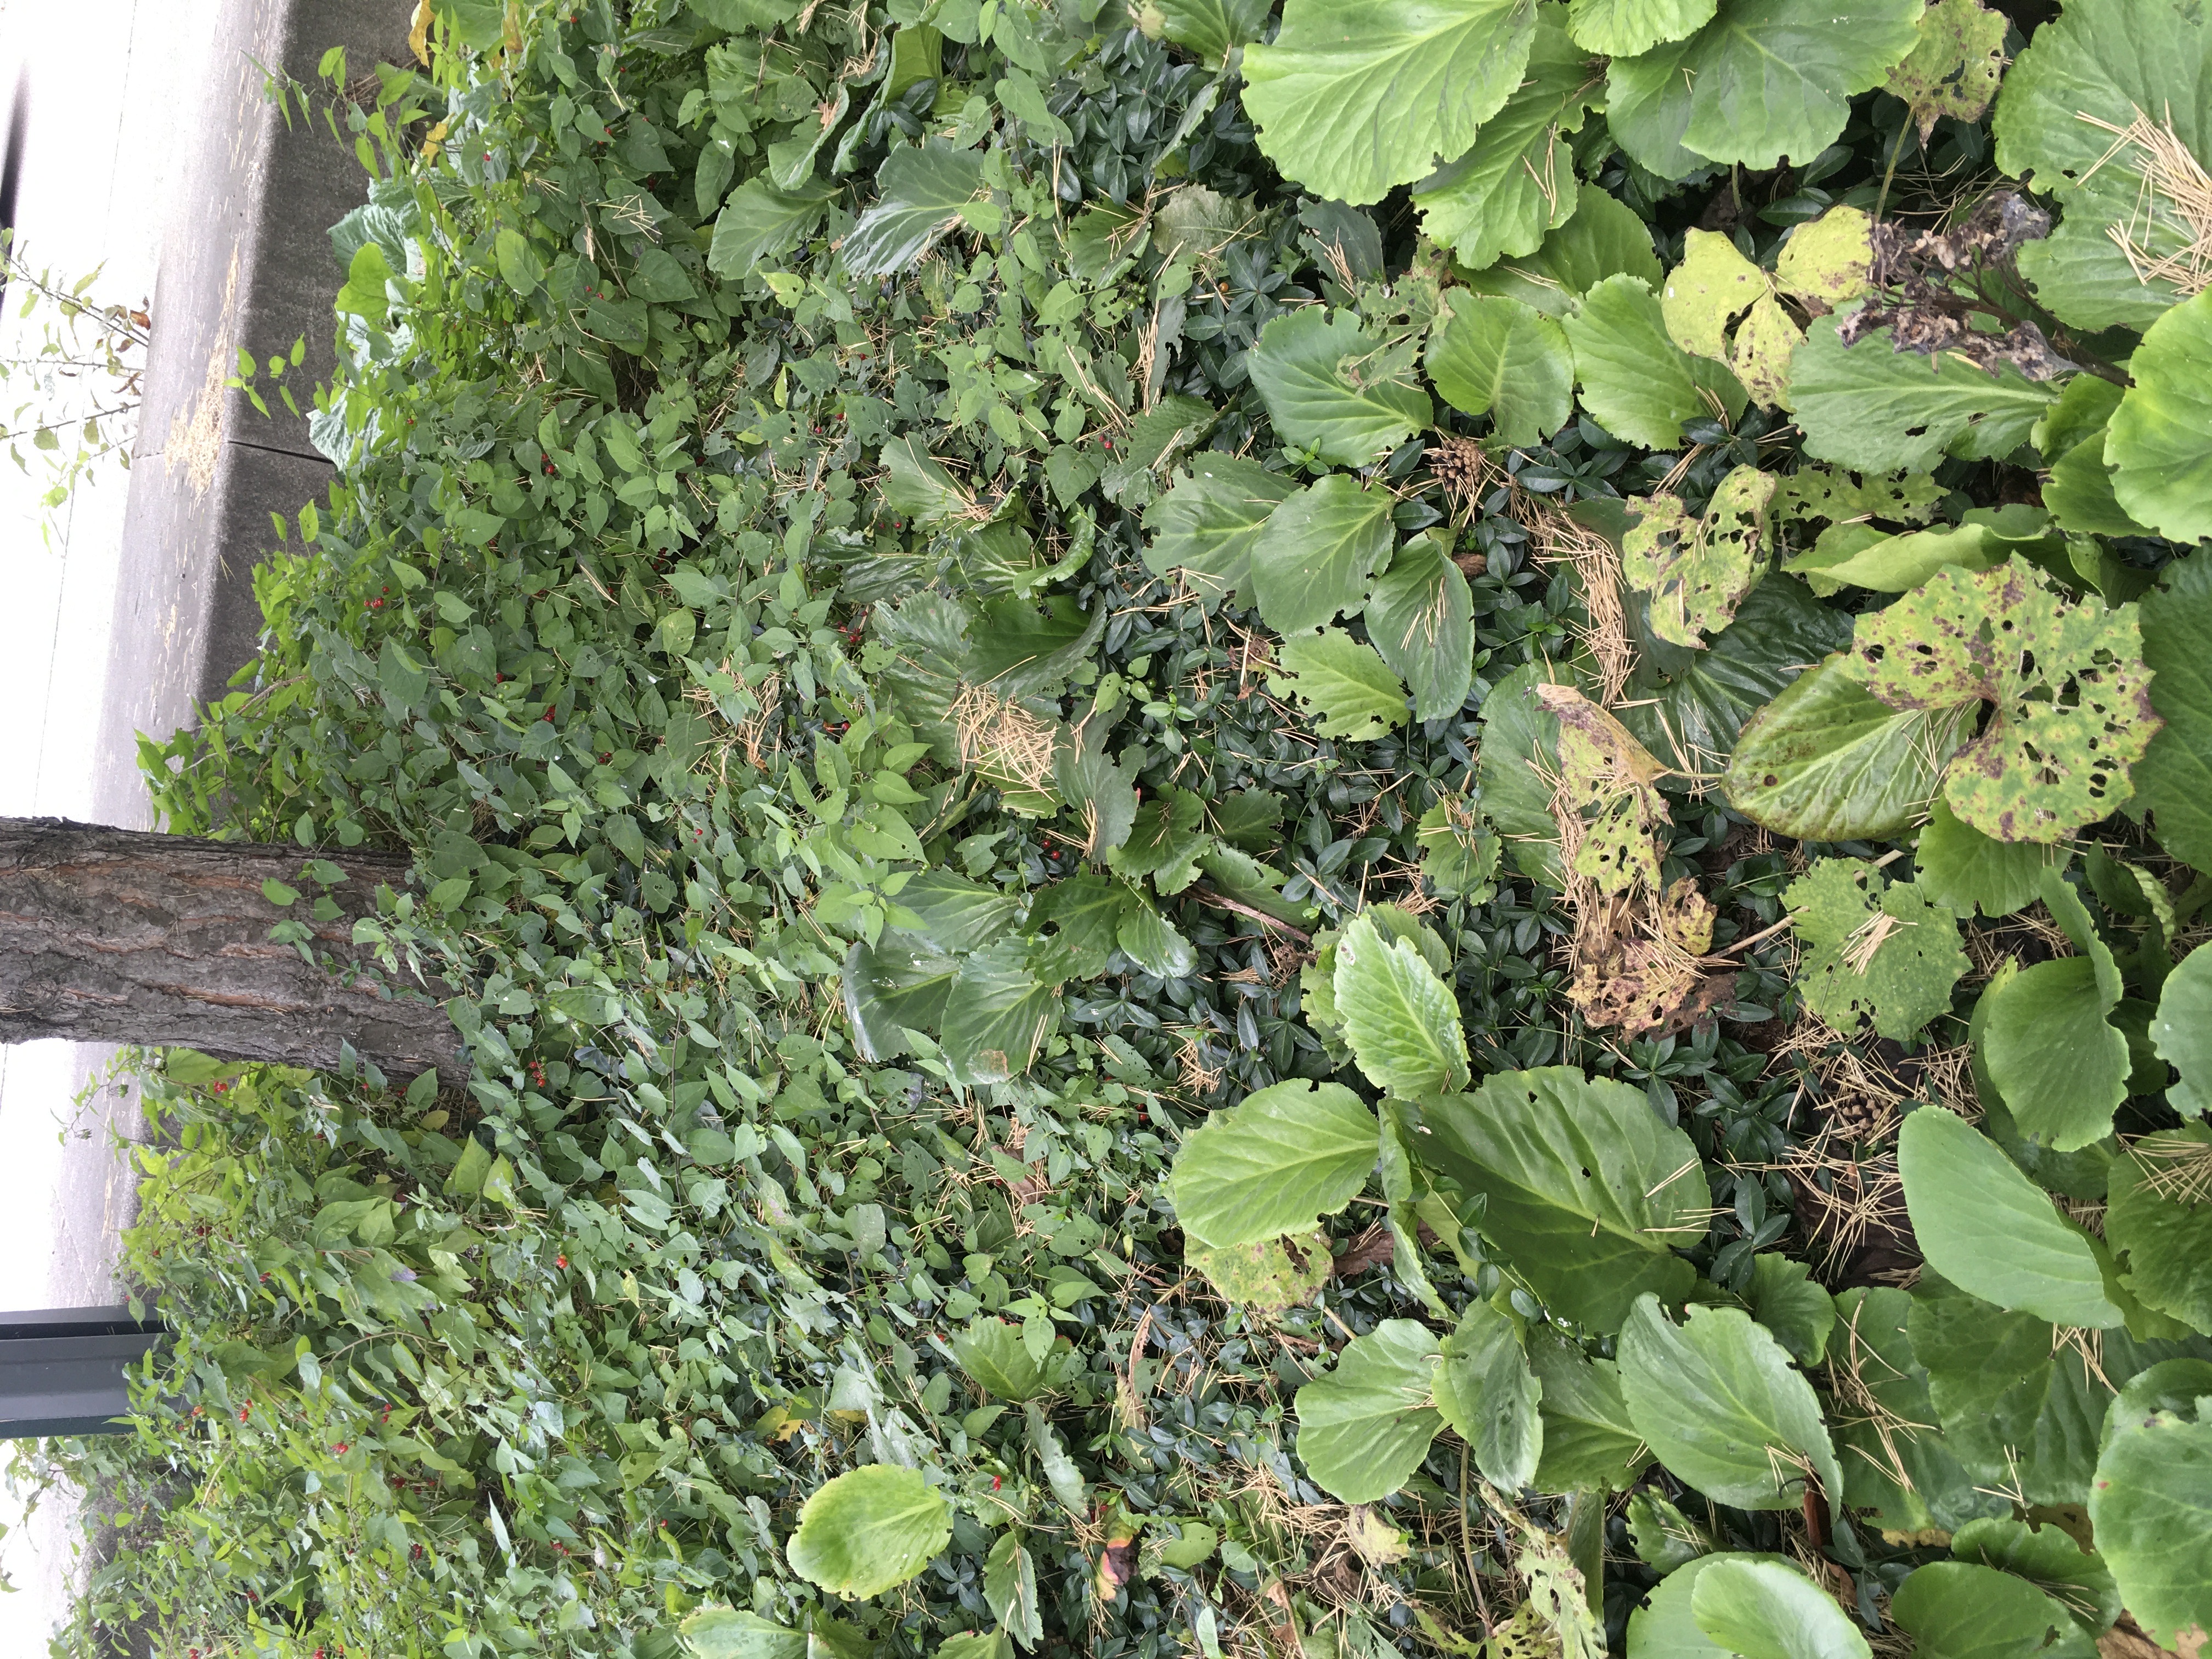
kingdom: Plantae
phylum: Tracheophyta
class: Magnoliopsida
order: Gentianales
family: Apocynaceae
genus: Vinca
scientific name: Vinca minor
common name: gravmyrt
